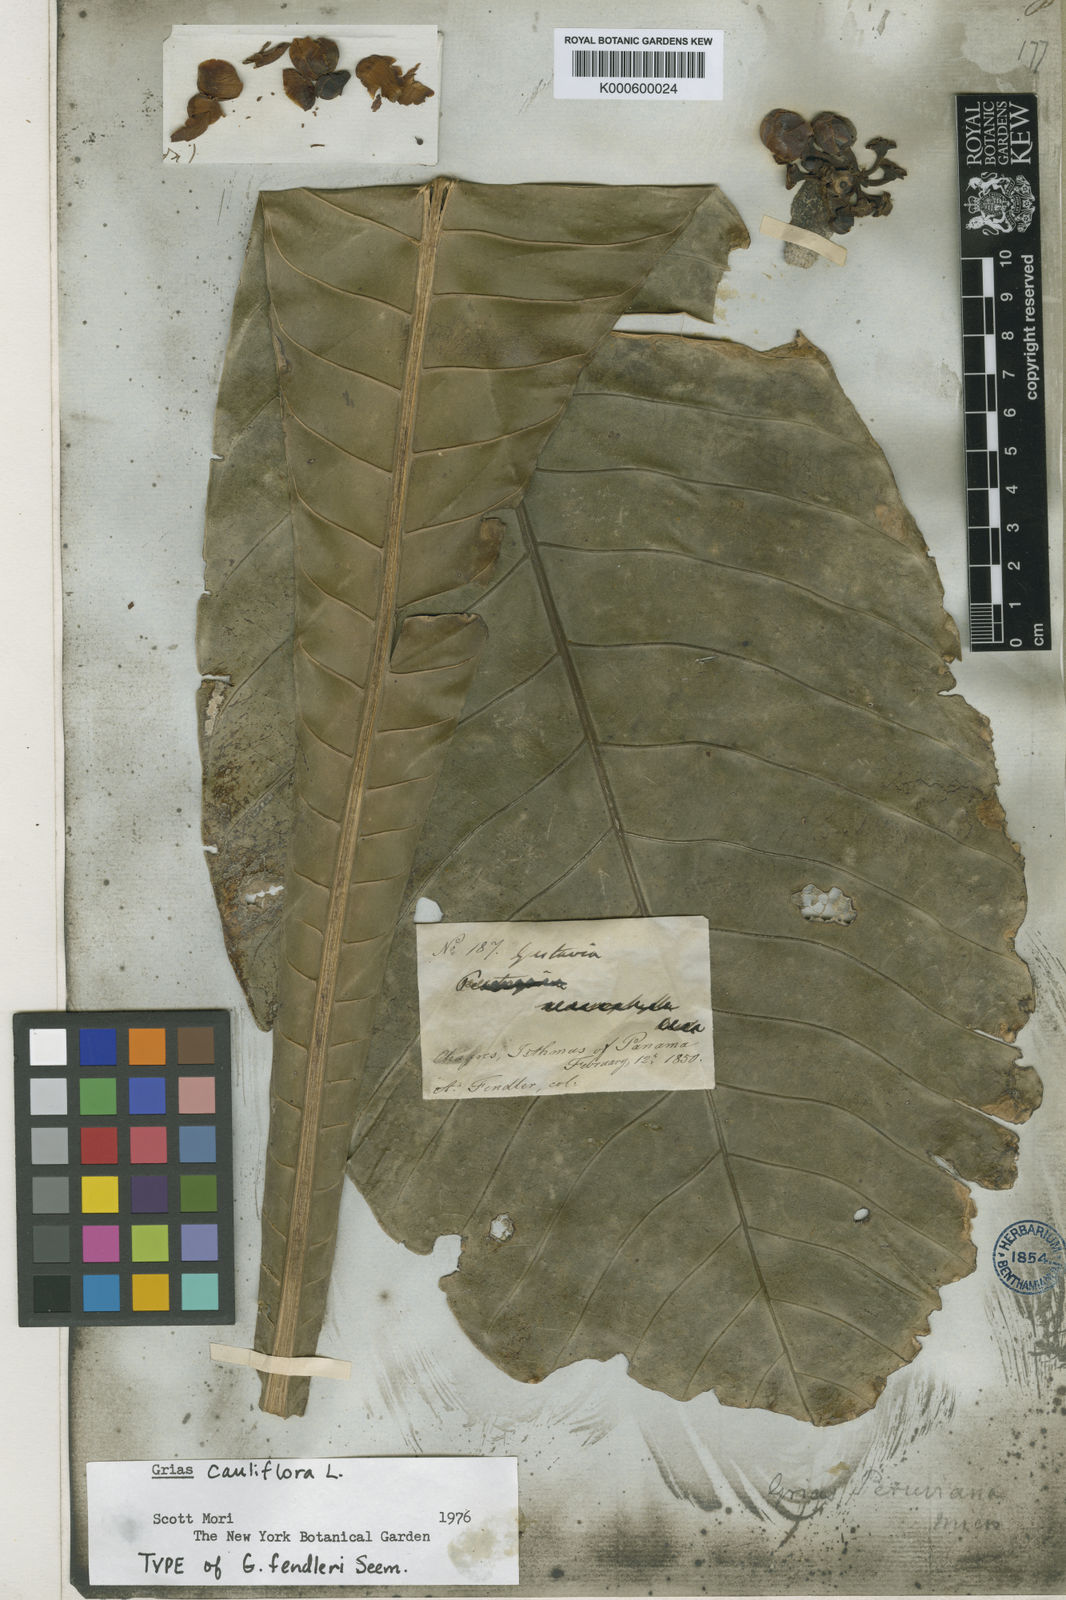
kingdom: Plantae
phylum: Tracheophyta
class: Magnoliopsida
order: Ericales
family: Lecythidaceae
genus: Grias
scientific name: Grias cauliflora
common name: Anchovy-pear
